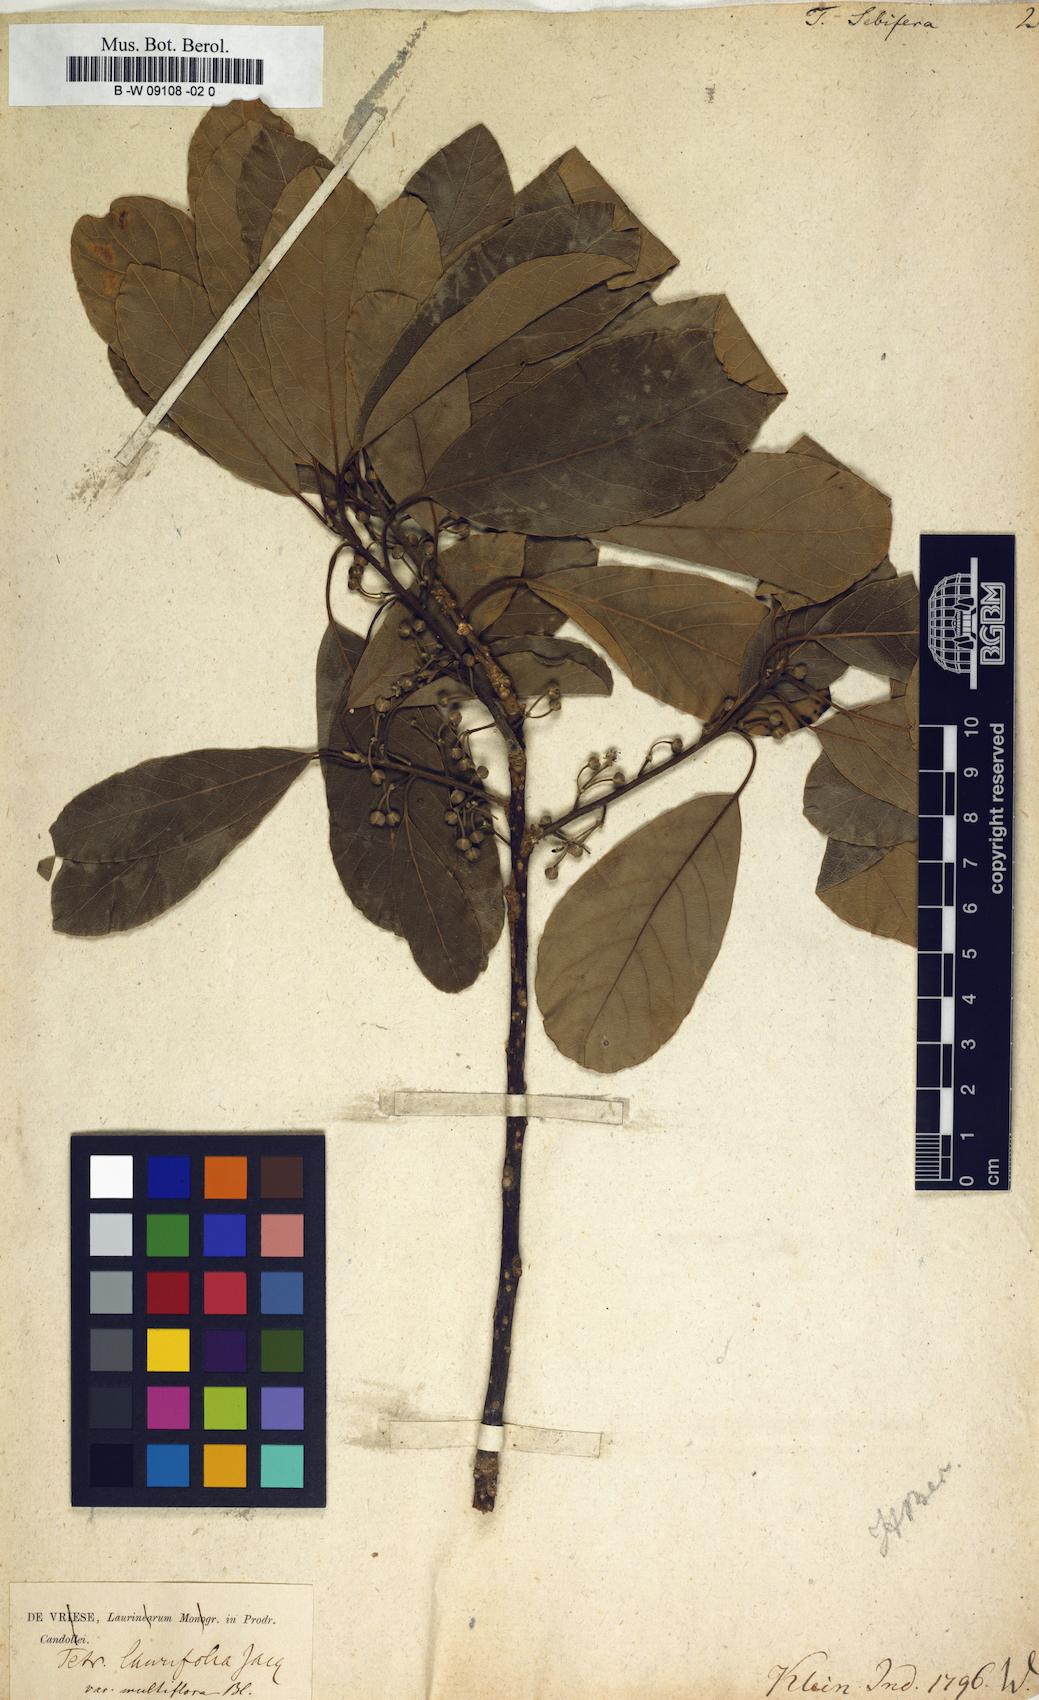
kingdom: Plantae
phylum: Tracheophyta
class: Magnoliopsida
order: Laurales
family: Lauraceae
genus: Litsea
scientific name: Litsea glutinosa
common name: Indian-laurel
